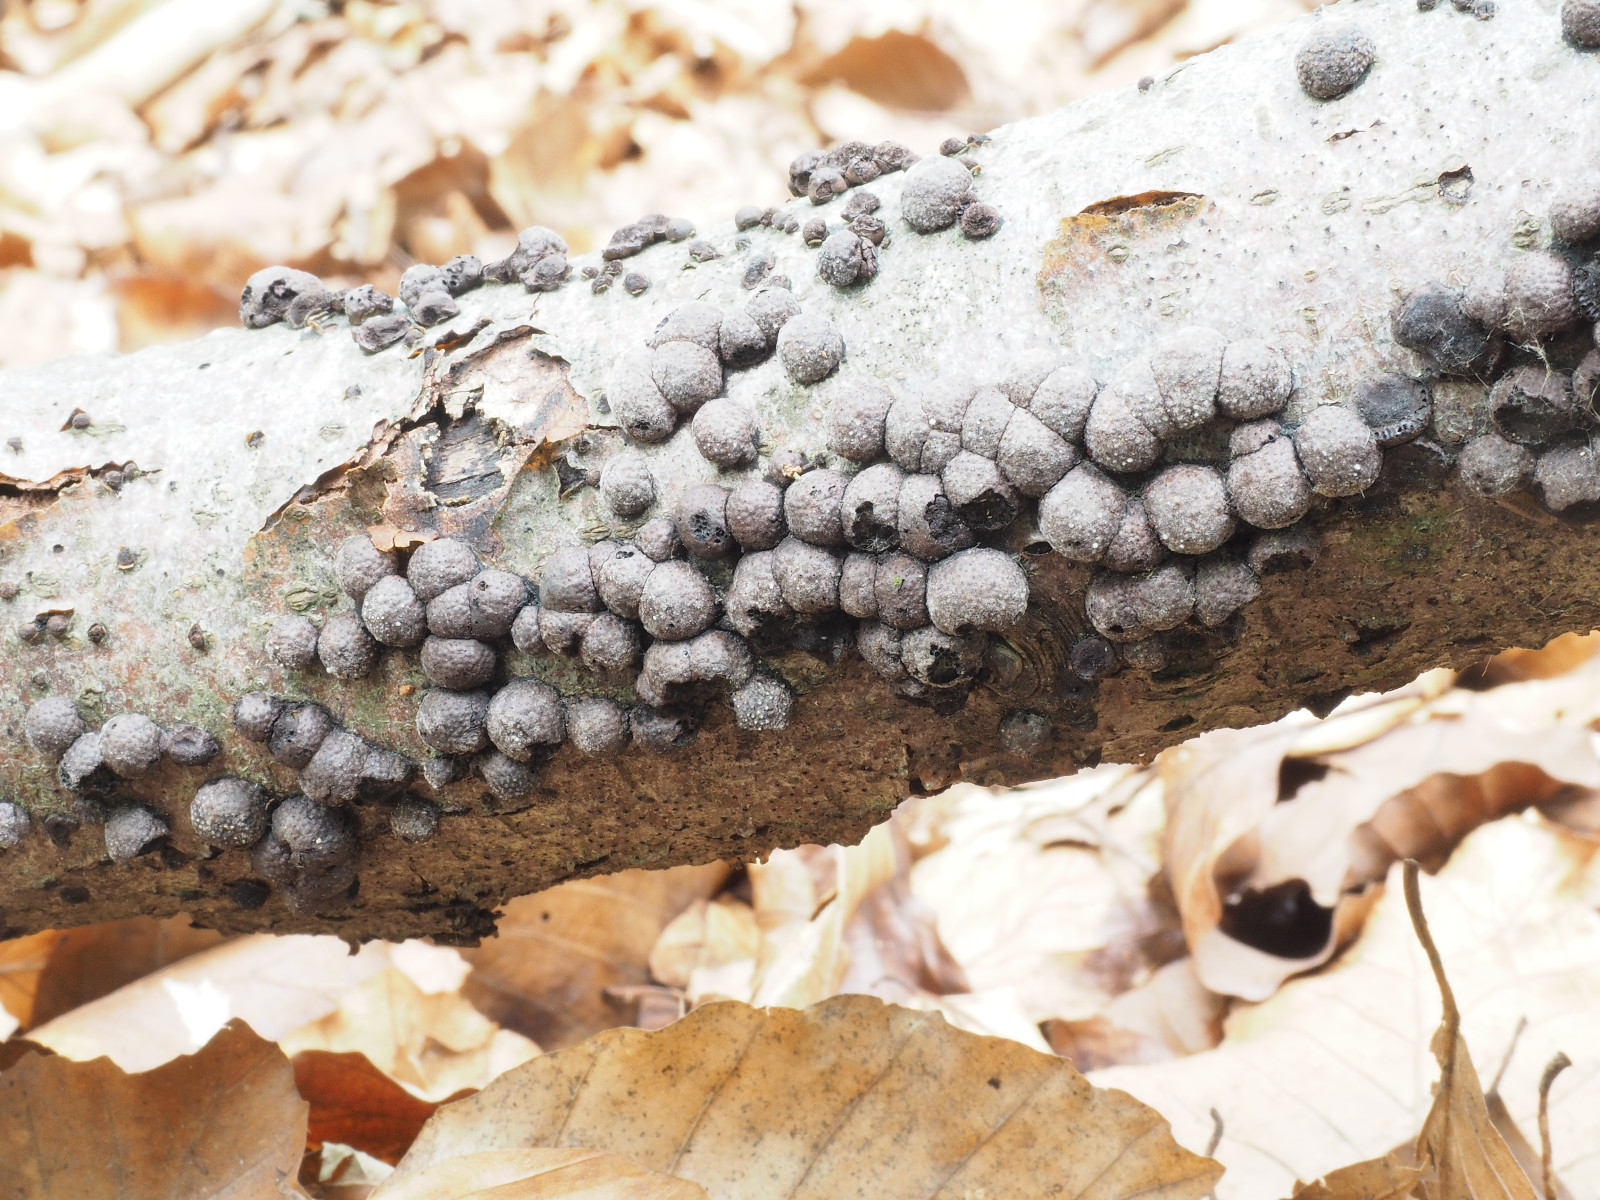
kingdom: Fungi
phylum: Ascomycota
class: Sordariomycetes
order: Xylariales
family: Hypoxylaceae
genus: Hypoxylon
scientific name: Hypoxylon fragiforme
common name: kuljordbær
